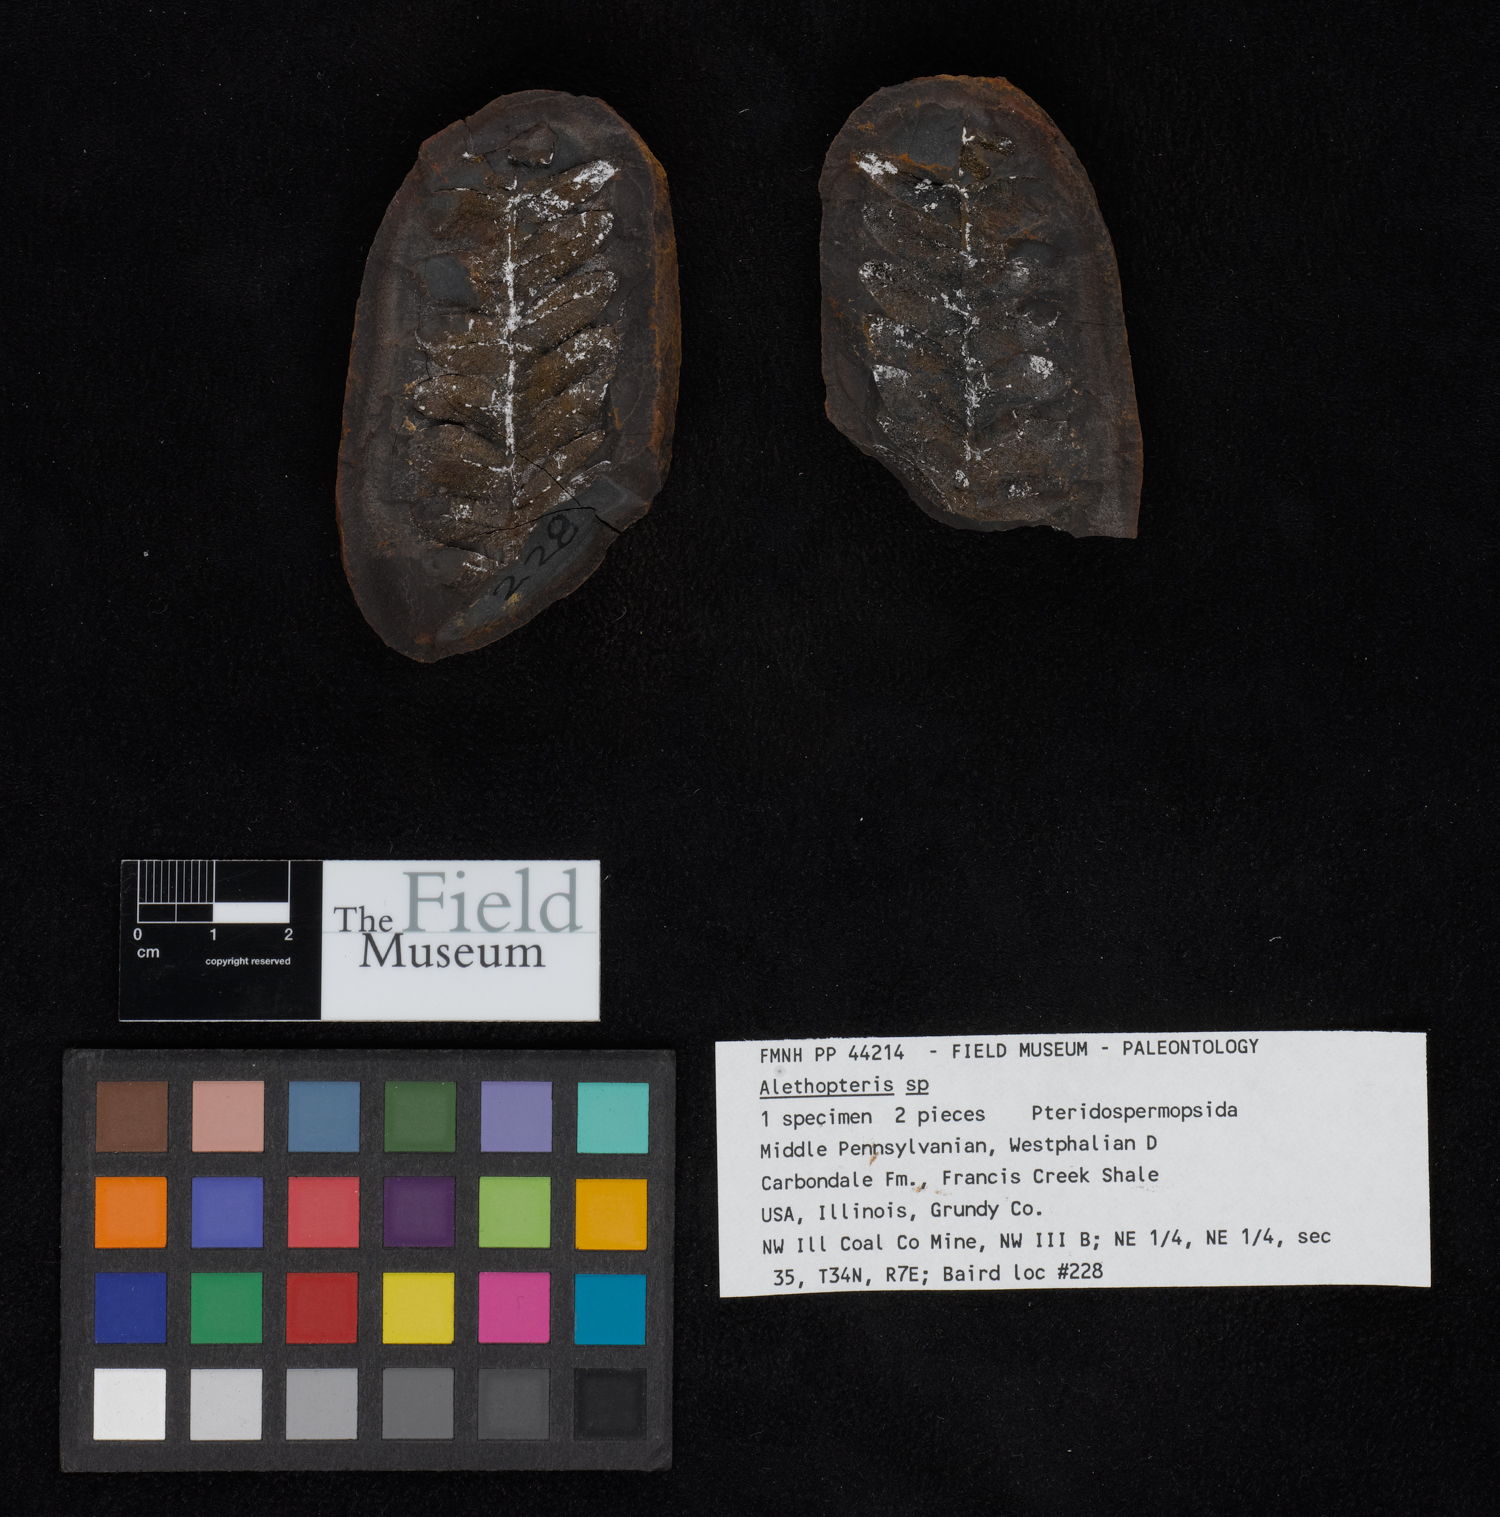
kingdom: Plantae
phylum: Tracheophyta
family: Pachytestaceae
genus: Alethopteris
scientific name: Alethopteris
